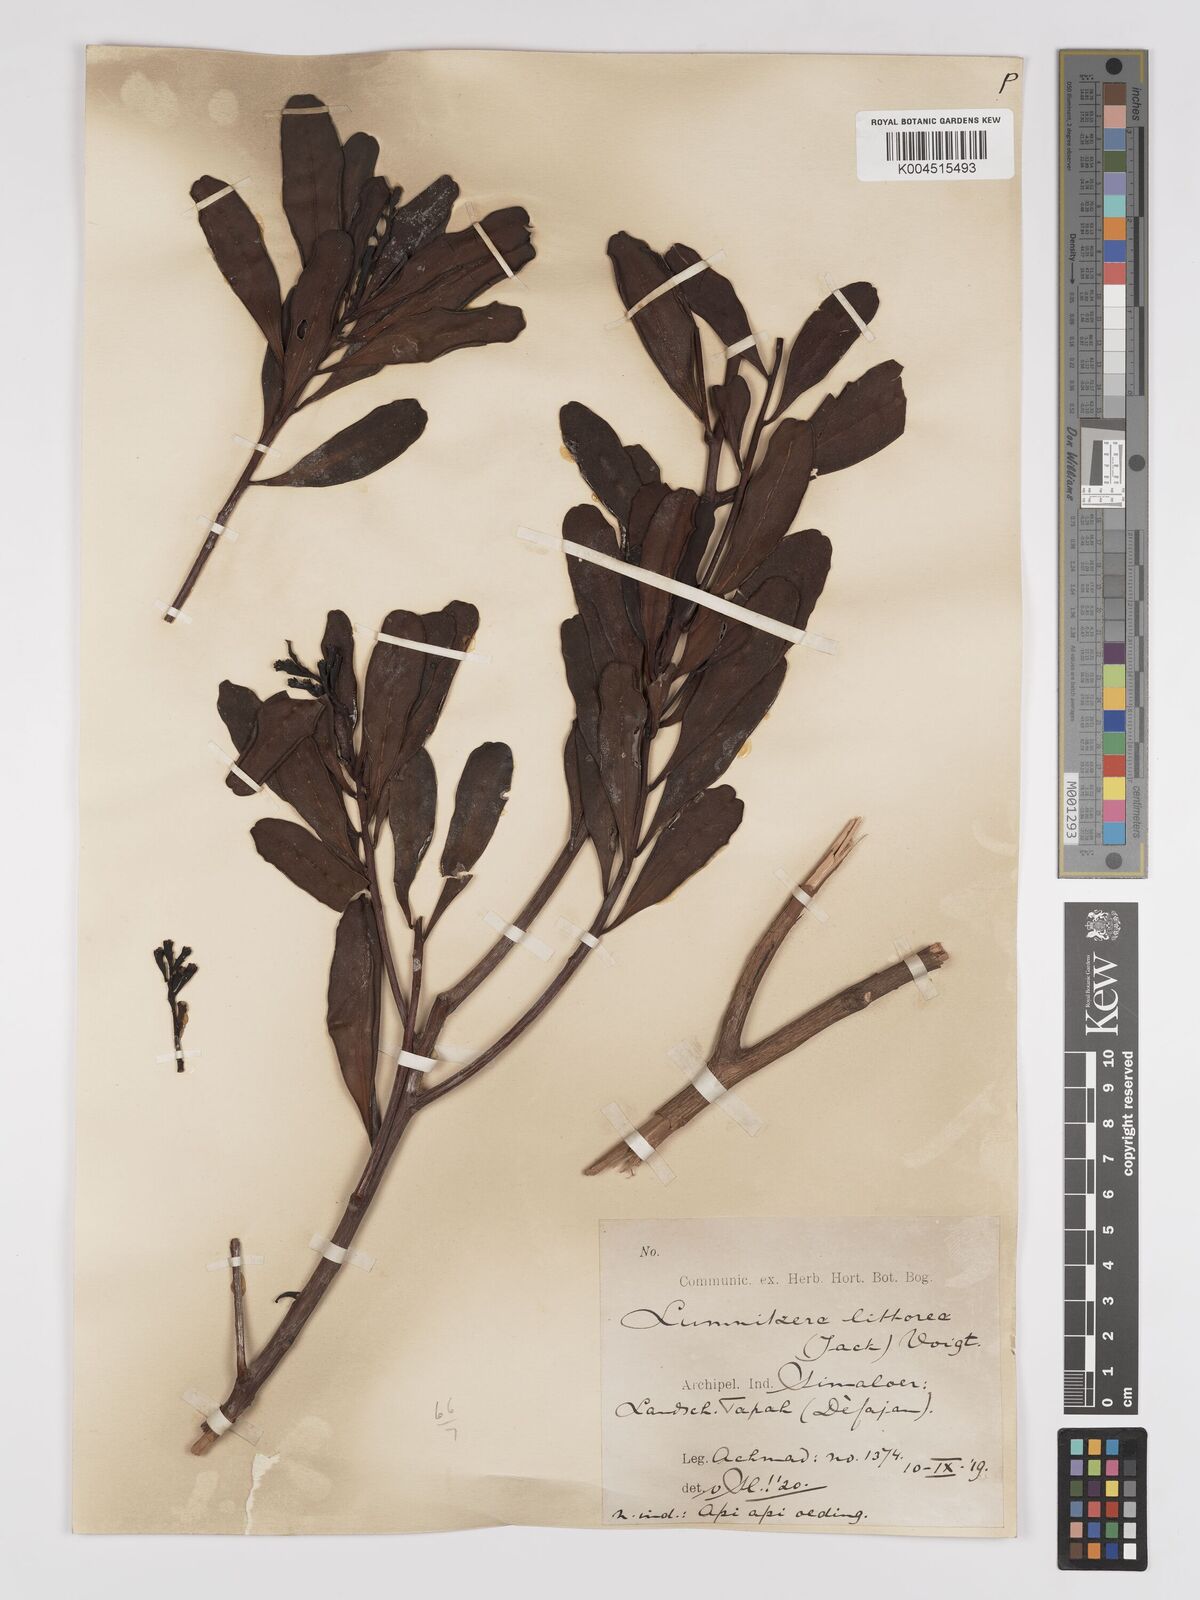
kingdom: Plantae
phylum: Tracheophyta
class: Magnoliopsida
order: Myrtales
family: Combretaceae
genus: Lumnitzera
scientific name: Lumnitzera littorea
